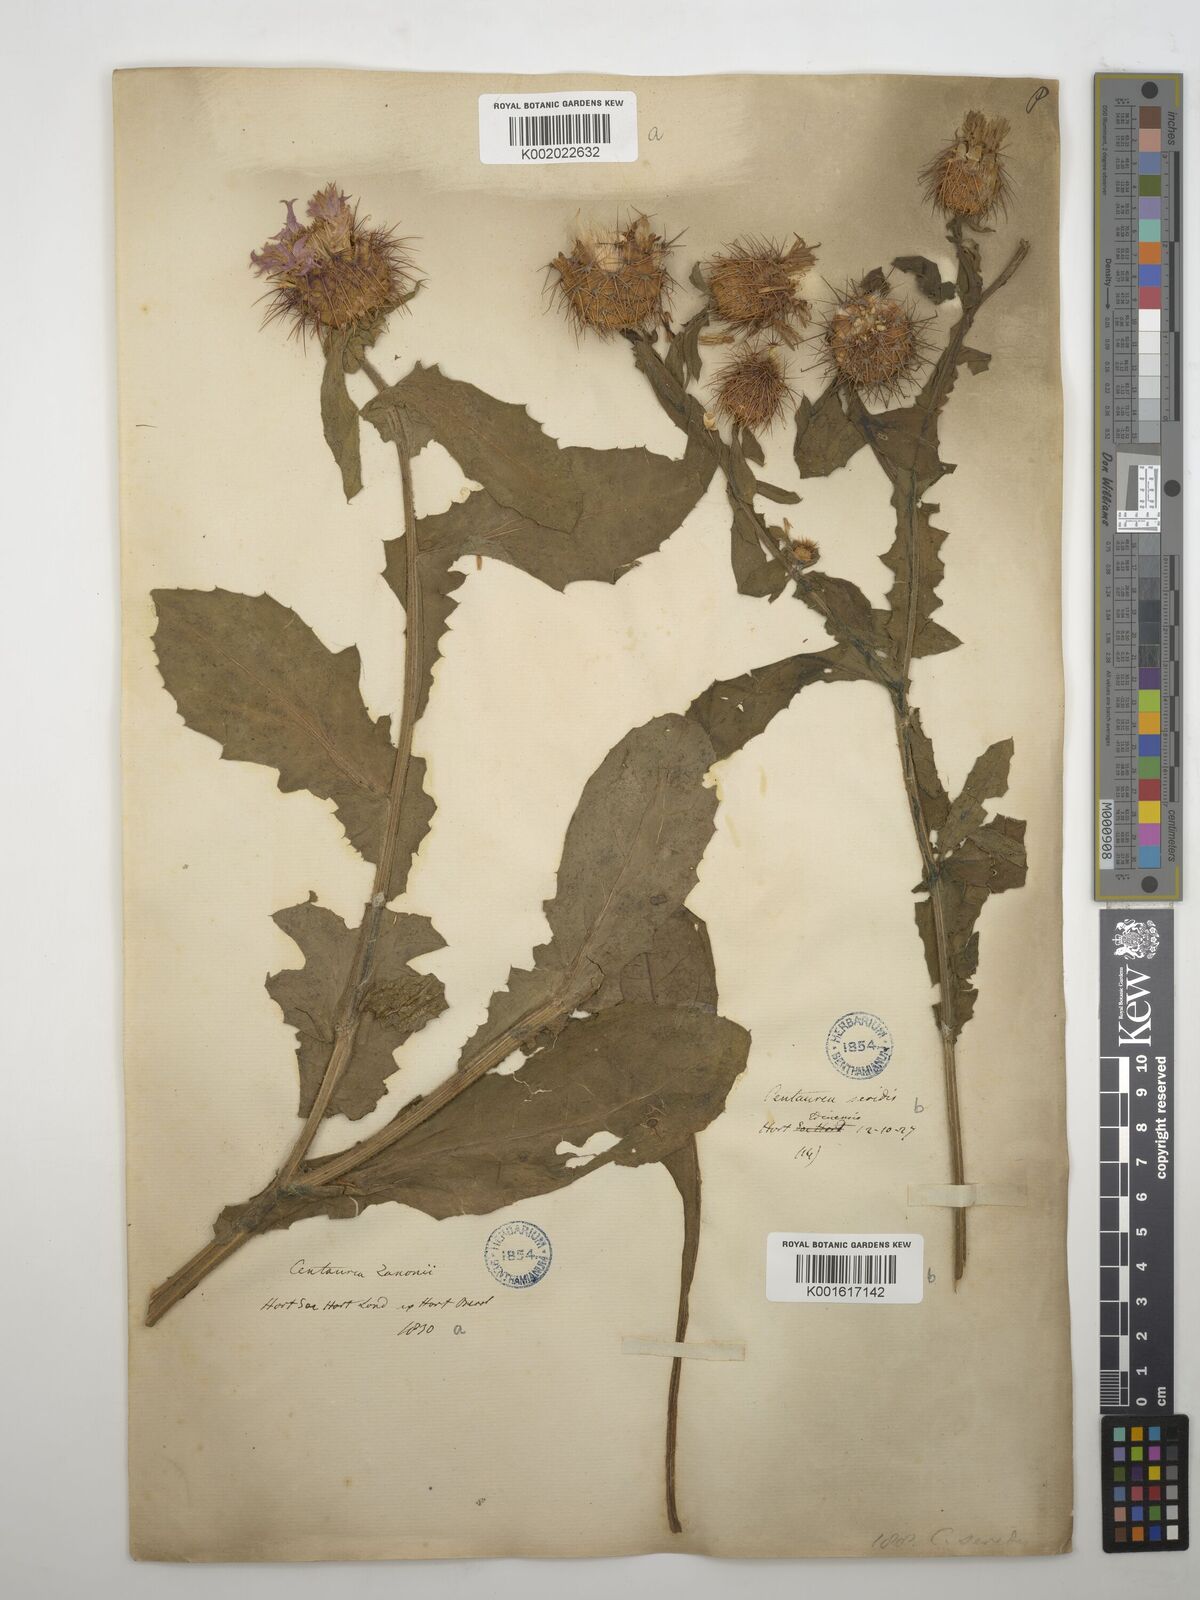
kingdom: Plantae
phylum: Tracheophyta
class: Magnoliopsida
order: Asterales
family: Asteraceae
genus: Centaurea
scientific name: Centaurea seridis
